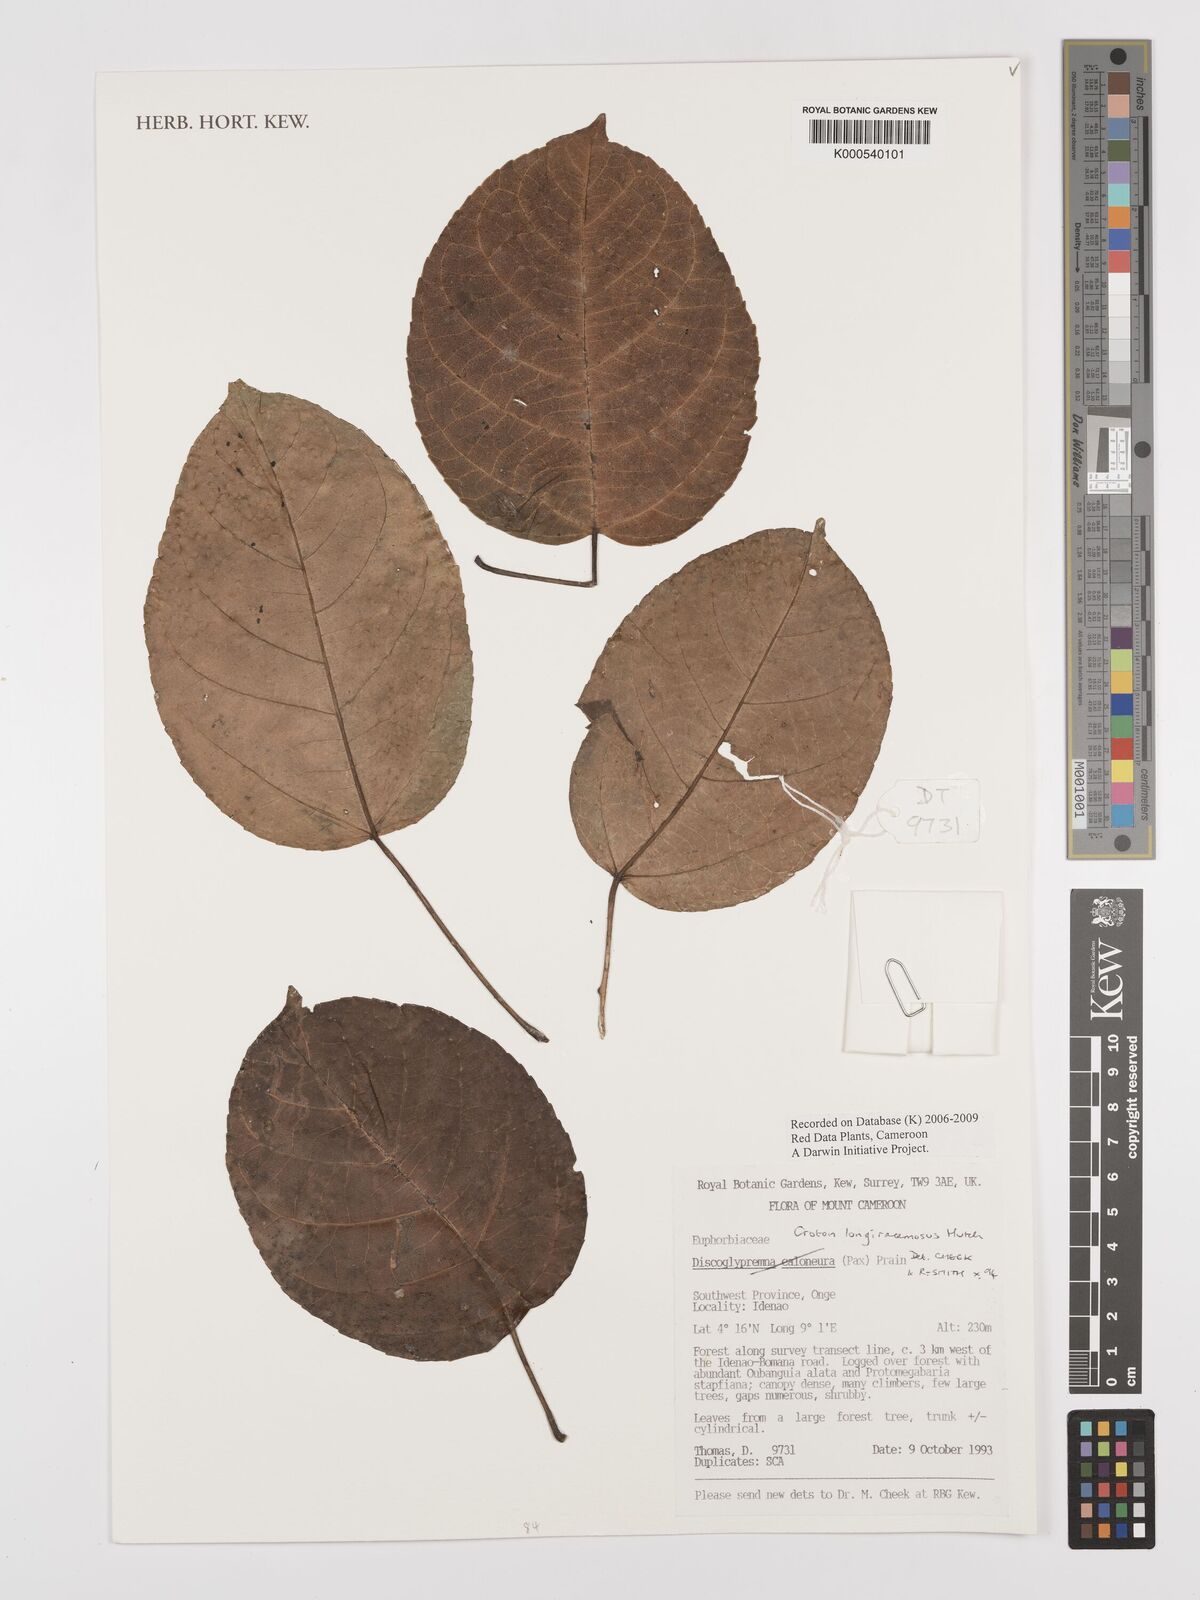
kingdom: Plantae
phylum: Tracheophyta
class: Magnoliopsida
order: Malpighiales
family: Euphorbiaceae
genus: Croton
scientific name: Croton longiracemosus
